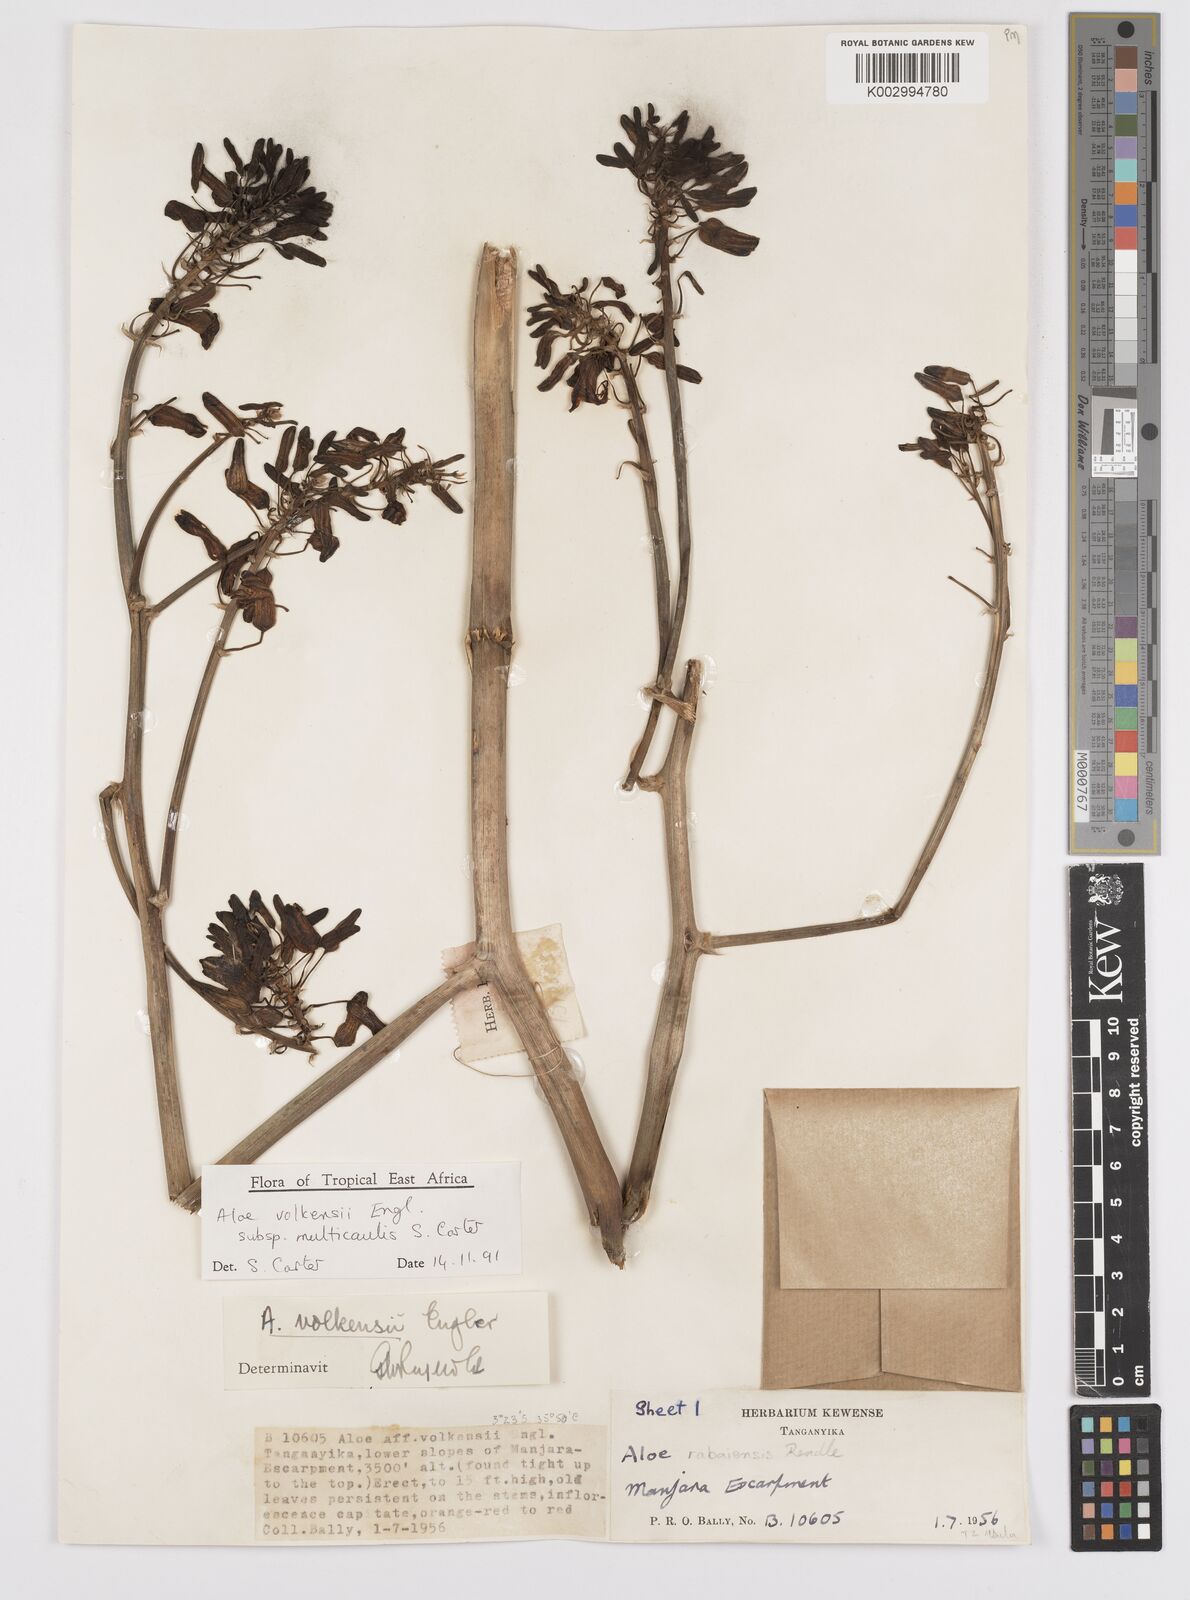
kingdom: Plantae
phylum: Tracheophyta
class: Liliopsida
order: Asparagales
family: Asphodelaceae
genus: Aloe
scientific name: Aloe volkensii
